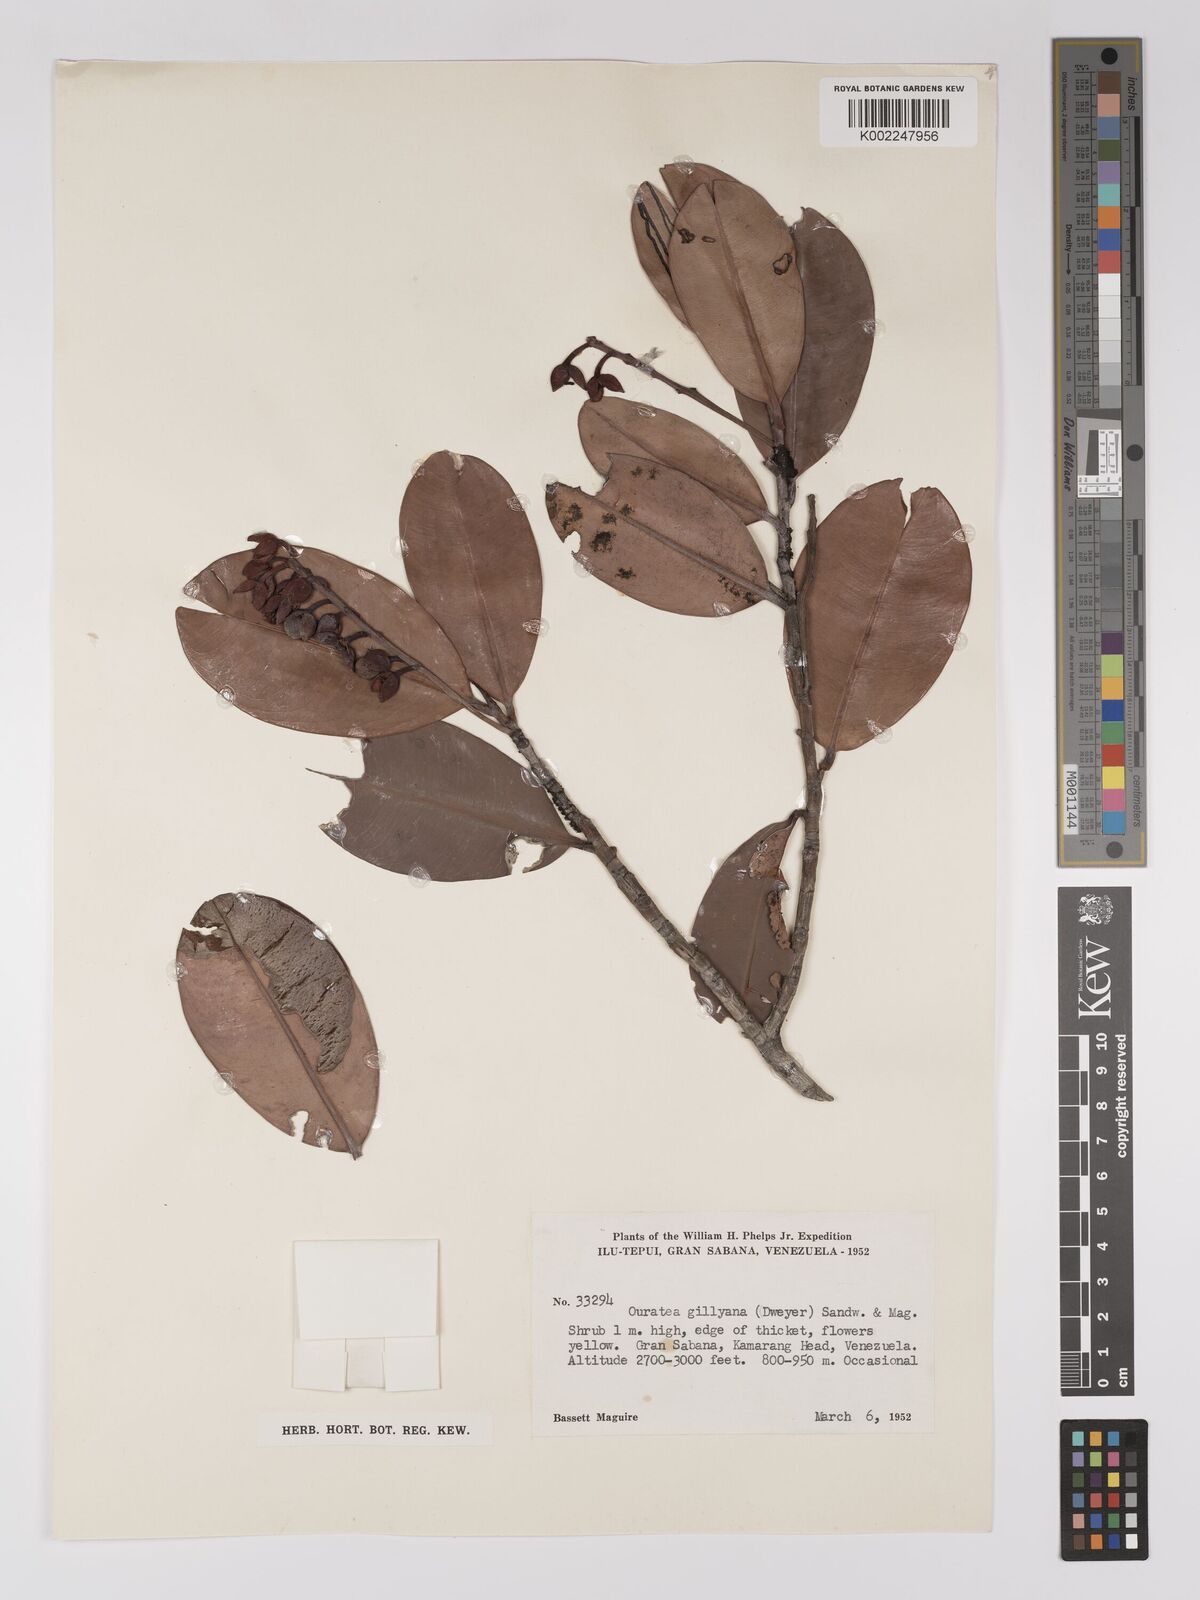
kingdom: Plantae
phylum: Tracheophyta
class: Magnoliopsida
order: Malpighiales
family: Ochnaceae
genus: Ouratea
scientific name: Ouratea gillyana
